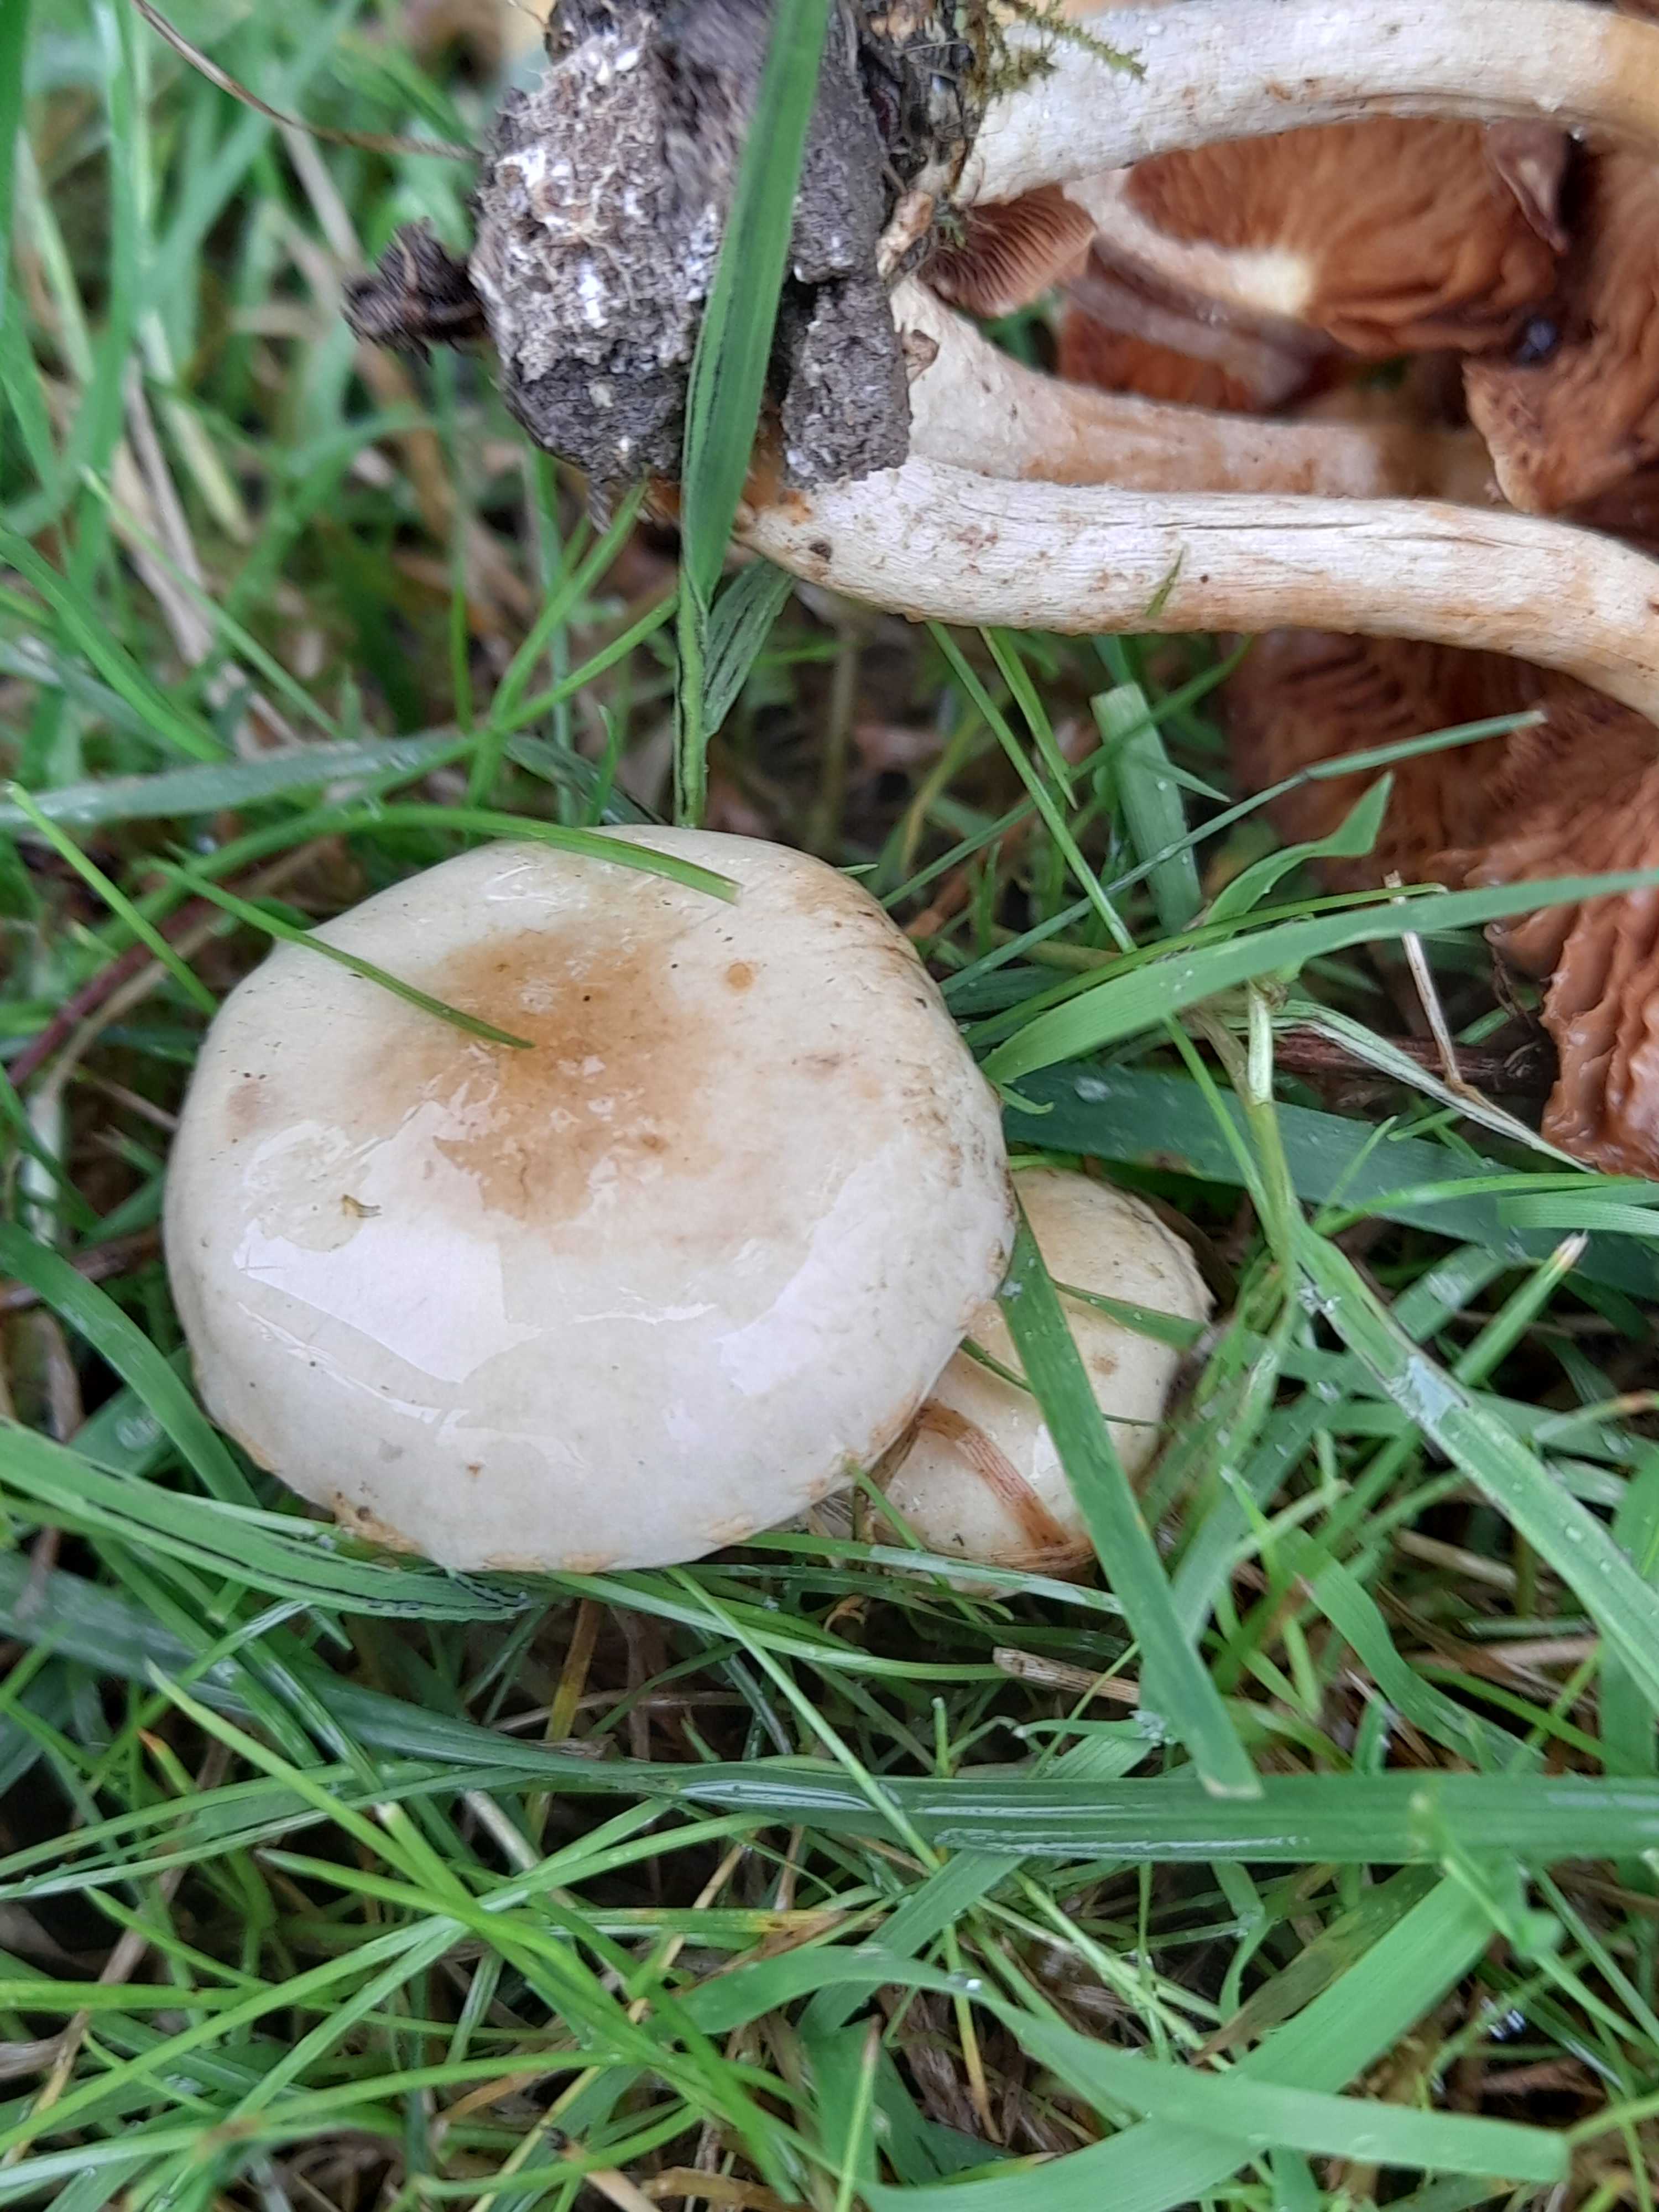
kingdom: Fungi
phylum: Basidiomycota
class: Agaricomycetes
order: Agaricales
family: Strophariaceae
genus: Pholiota
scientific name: Pholiota gummosa
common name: grøngul skælhat
